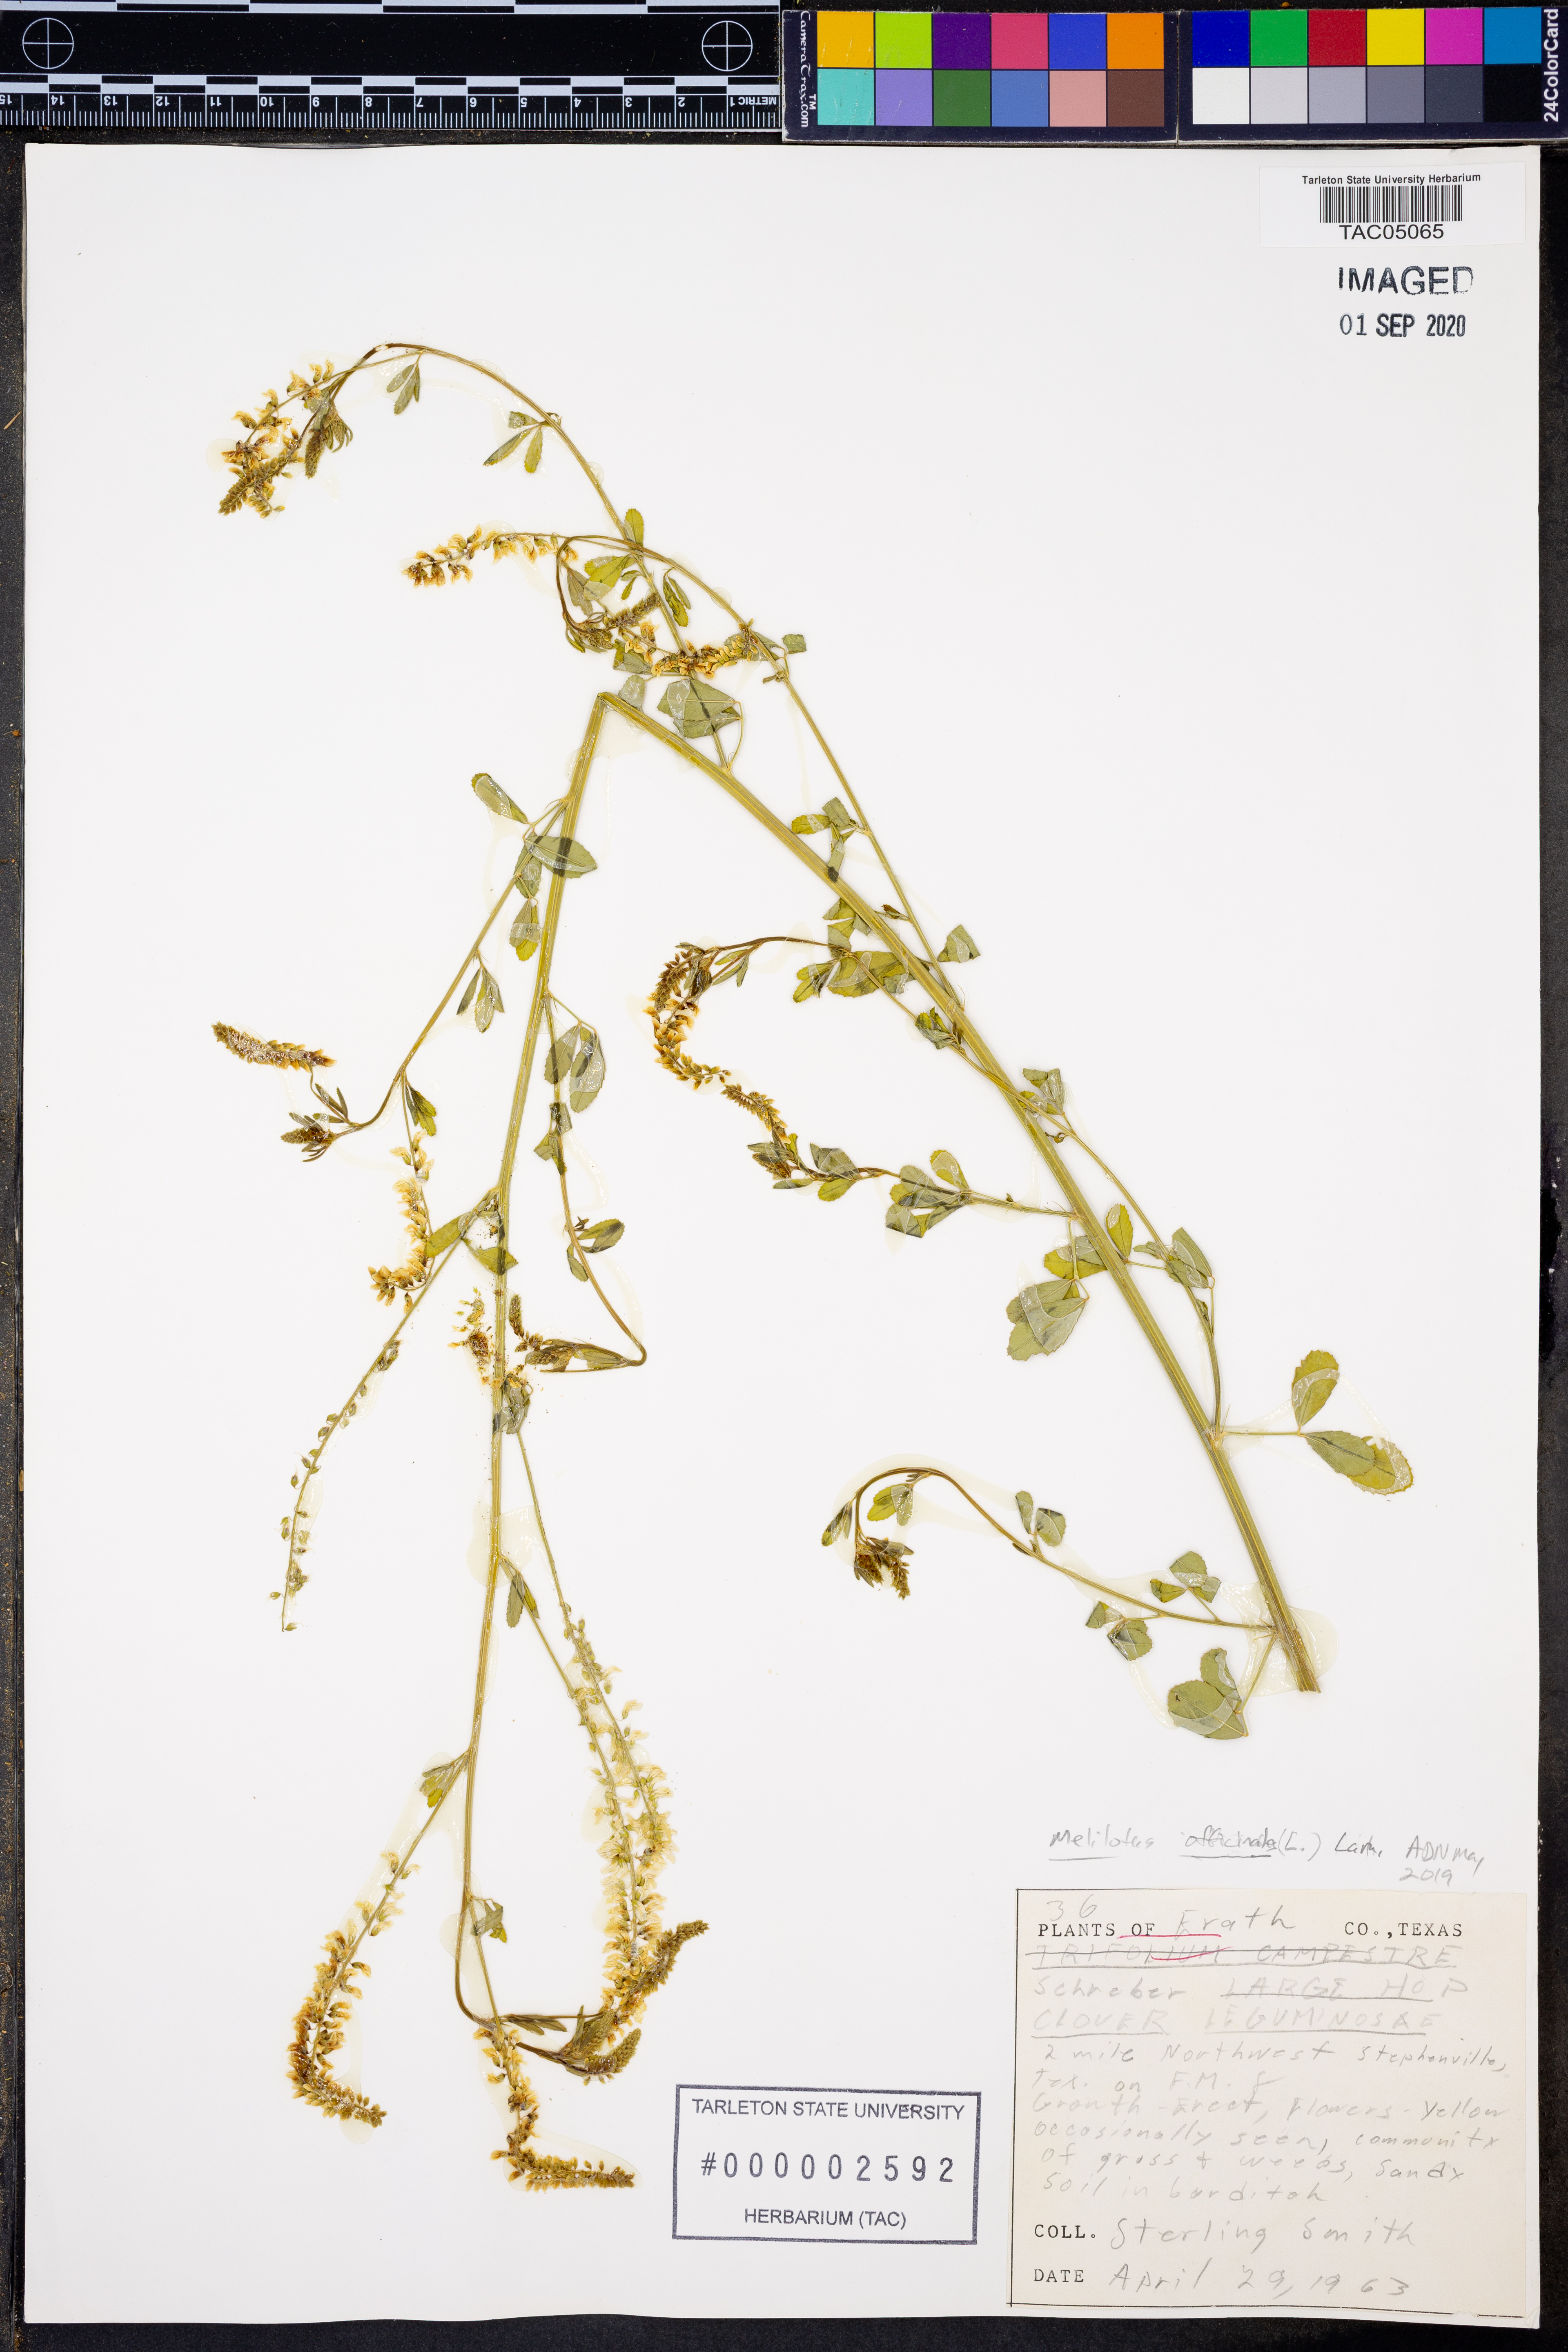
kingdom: Plantae
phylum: Tracheophyta
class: Magnoliopsida
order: Fabales
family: Fabaceae
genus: Melilotus
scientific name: Melilotus officinalis
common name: Sweetclover
